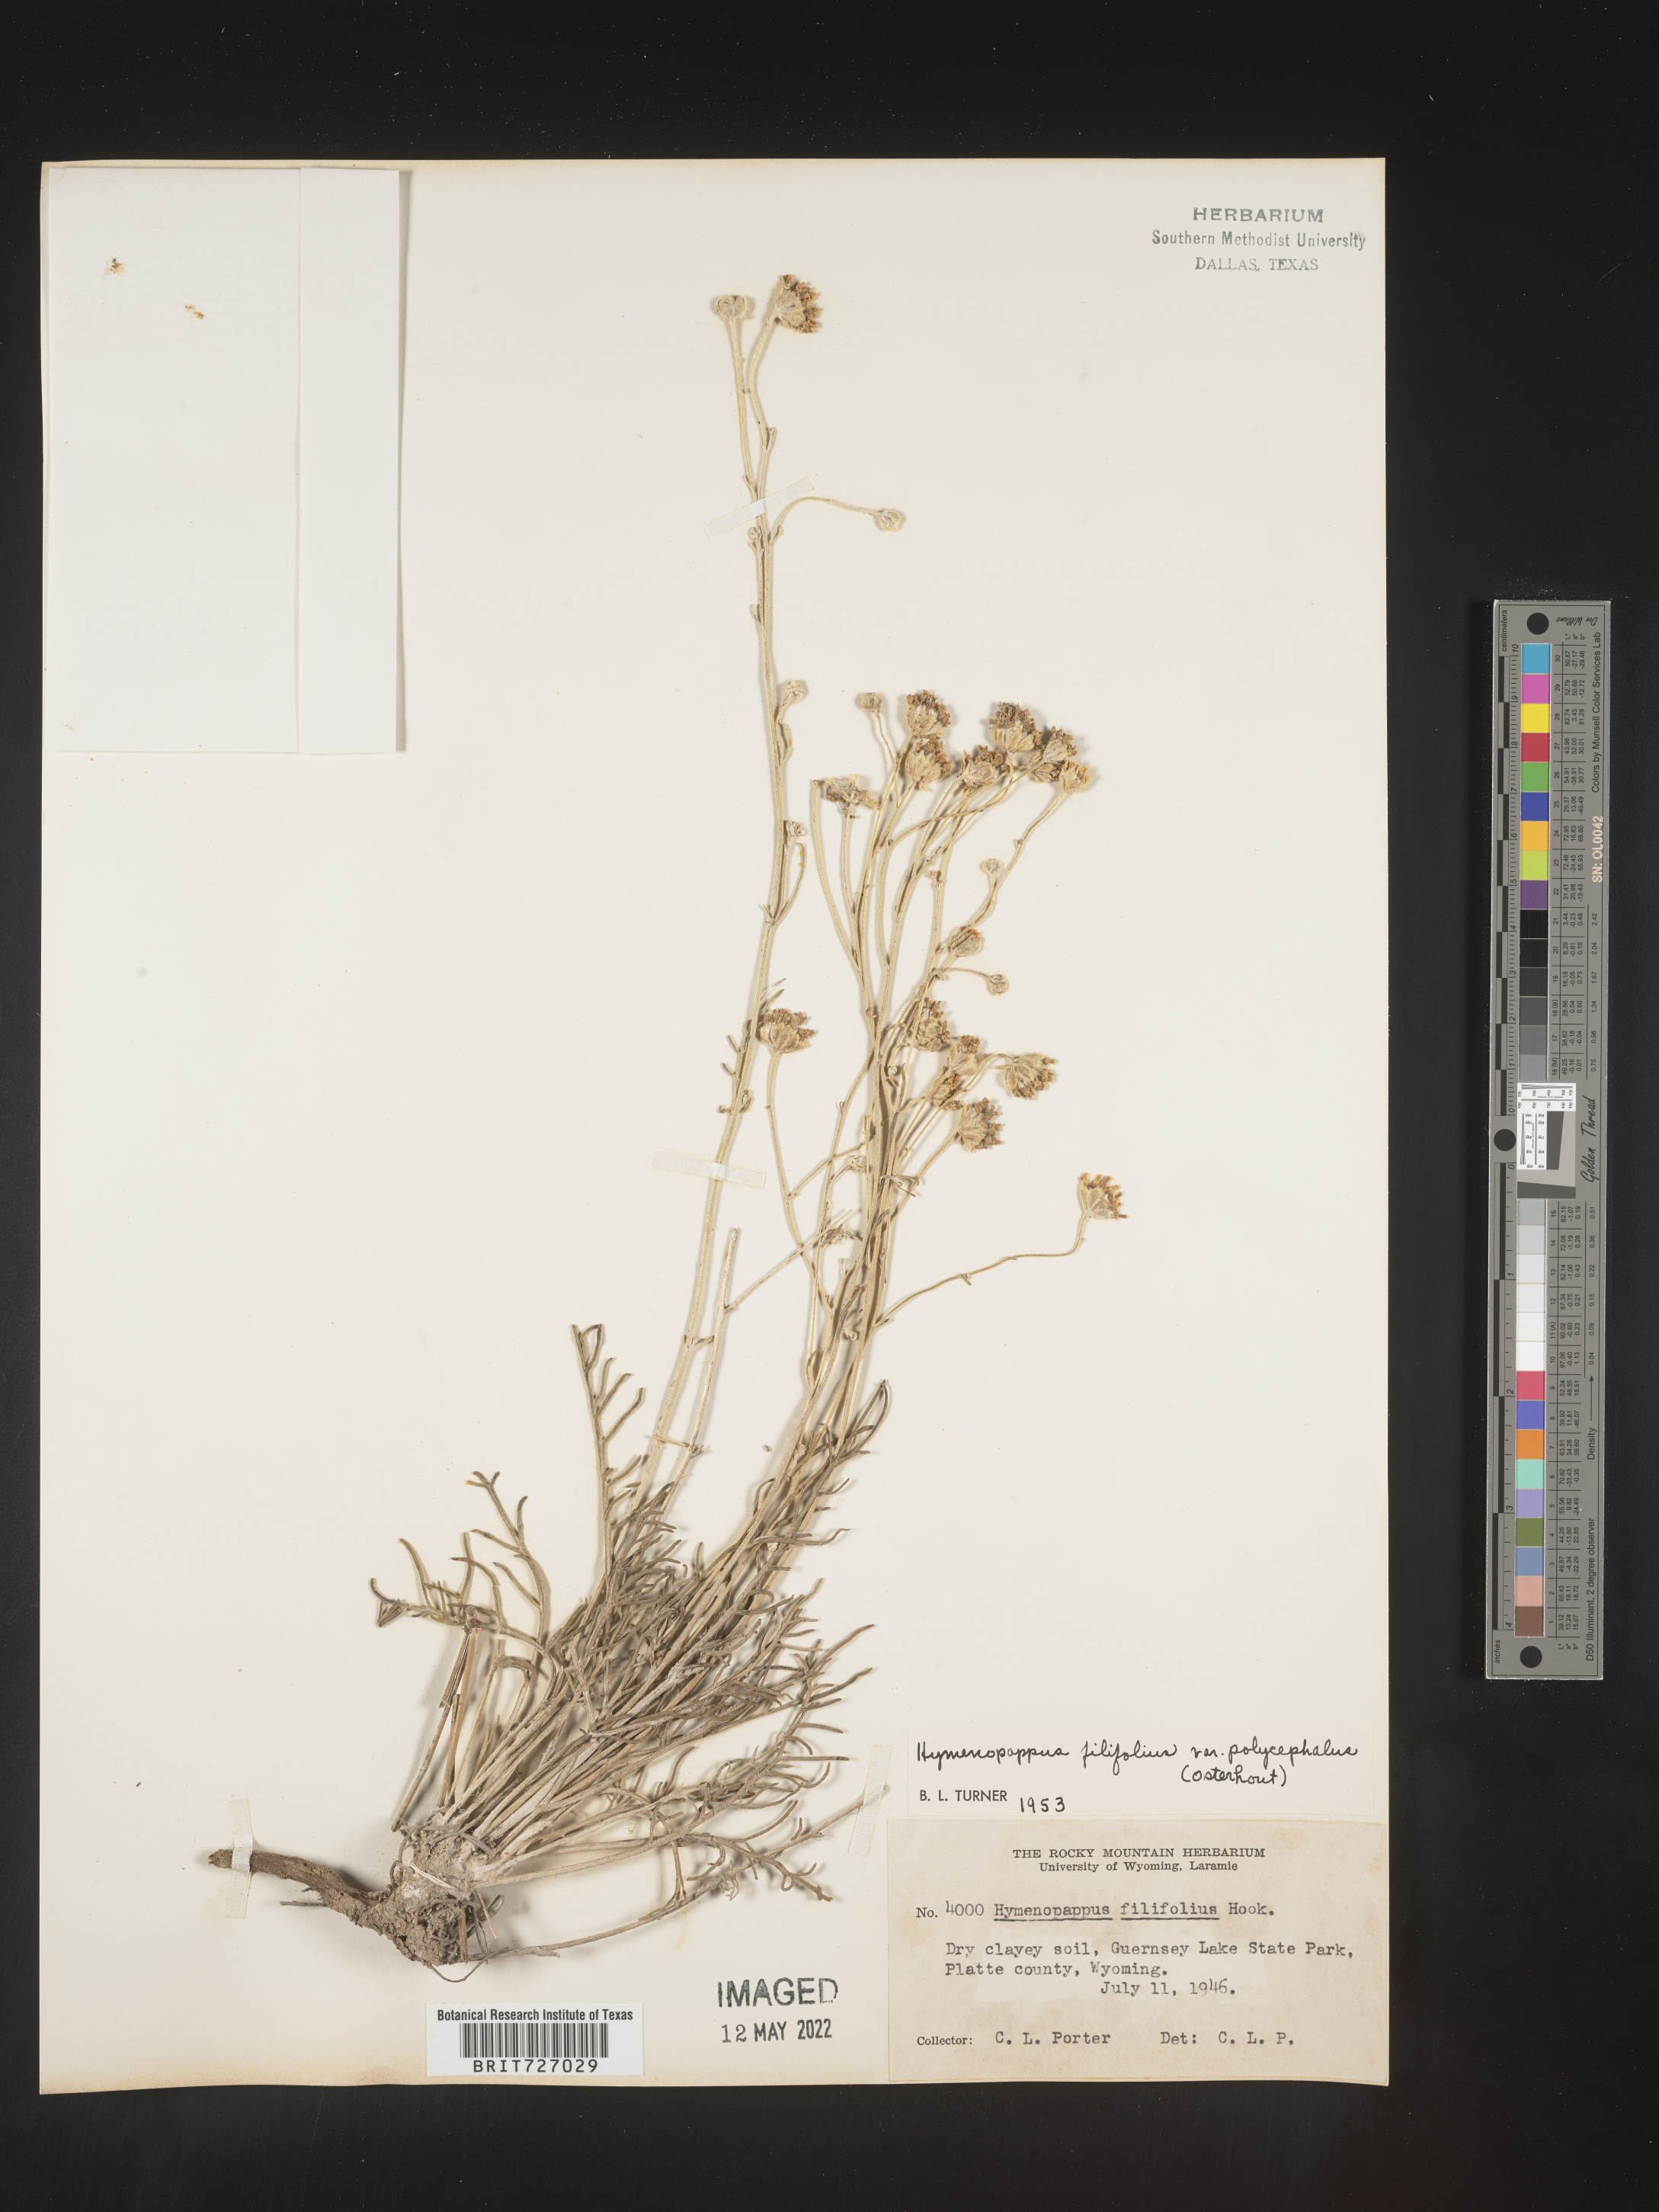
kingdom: Plantae
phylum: Tracheophyta
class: Magnoliopsida
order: Asterales
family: Asteraceae
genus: Hymenopappus
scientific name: Hymenopappus filifolius
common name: Columbia cutleaf
